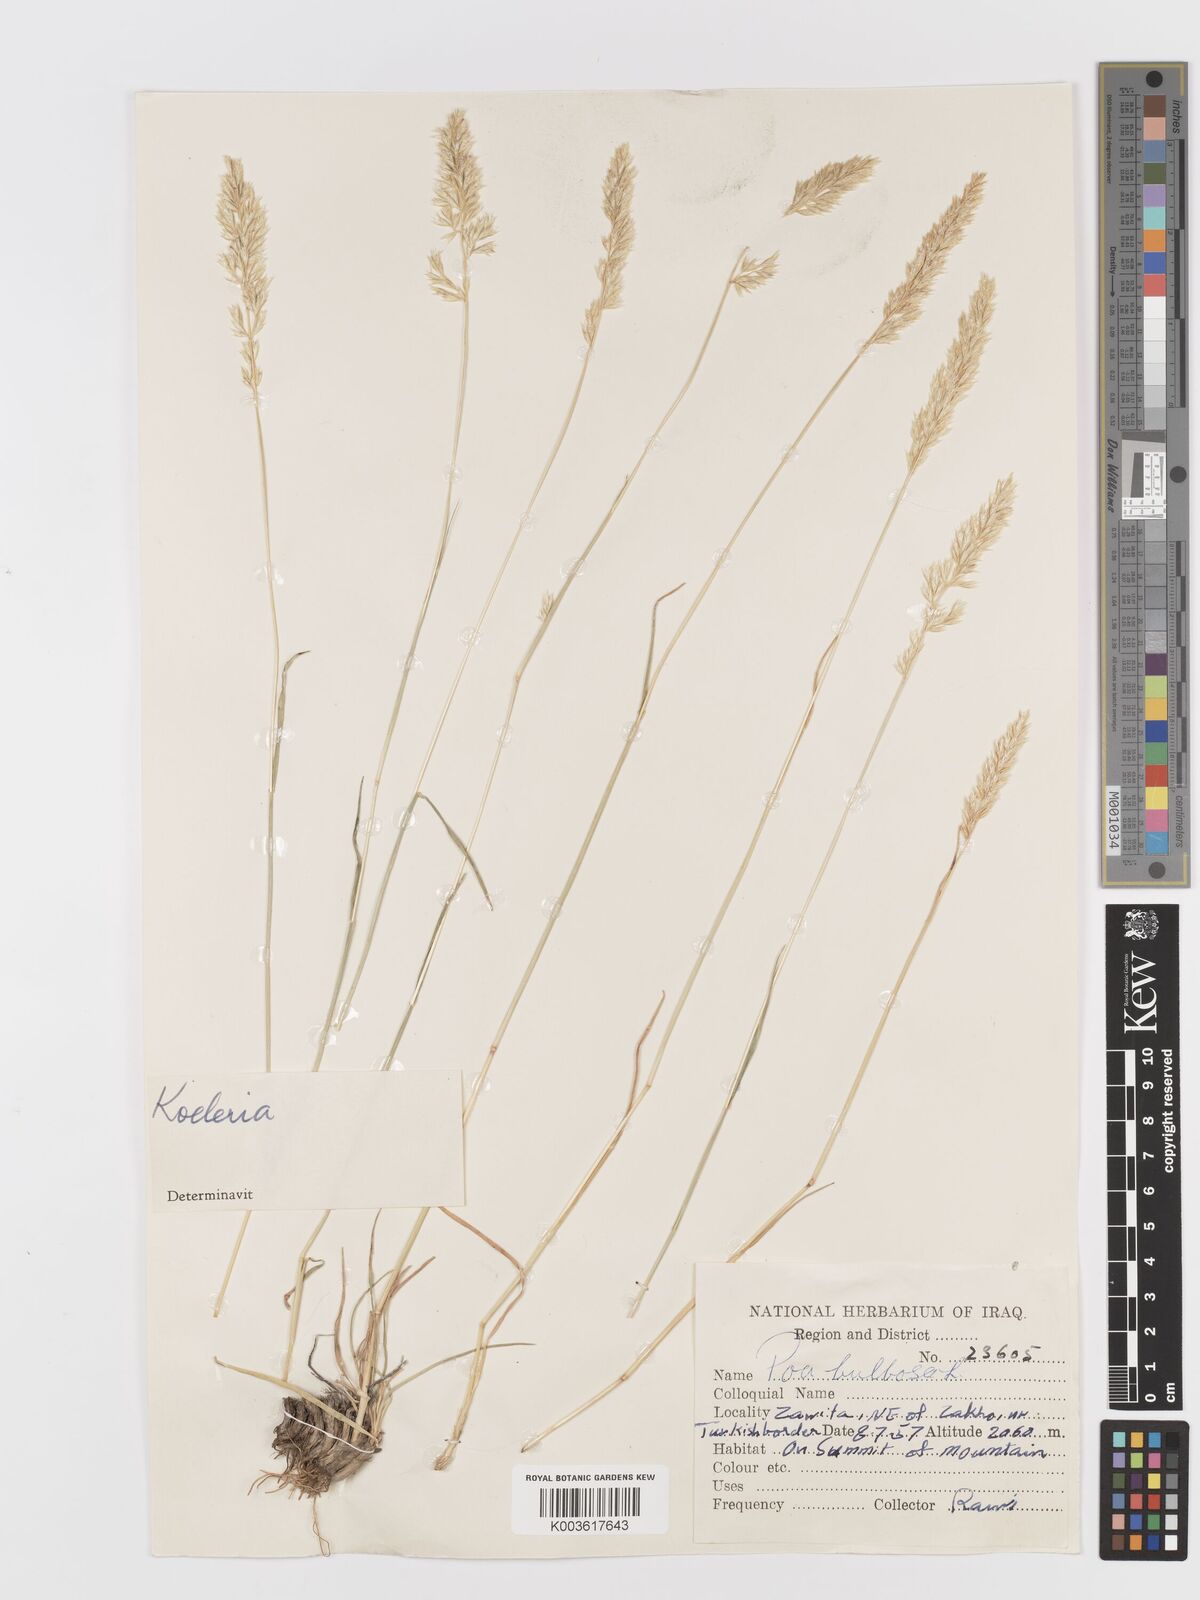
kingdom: Plantae
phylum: Tracheophyta
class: Liliopsida
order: Poales
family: Poaceae
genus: Koeleria
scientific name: Koeleria
